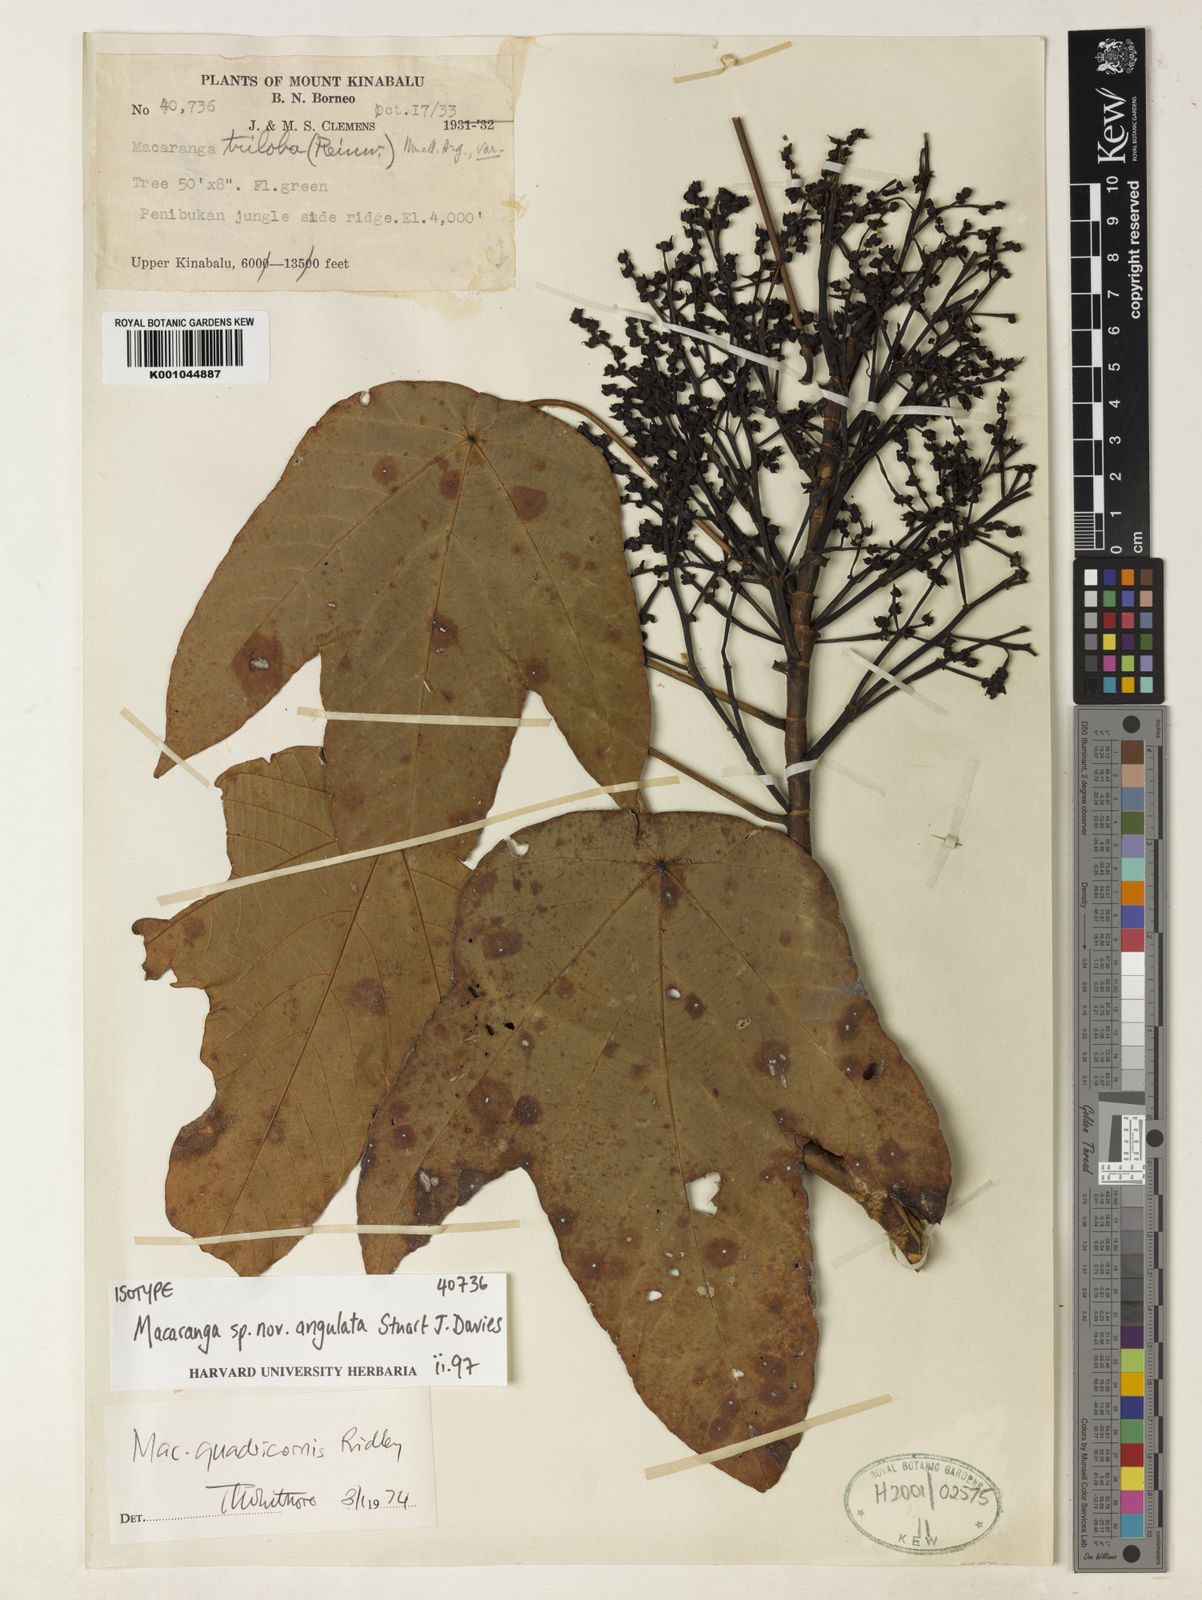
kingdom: Plantae
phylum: Tracheophyta
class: Magnoliopsida
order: Malpighiales
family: Euphorbiaceae
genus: Macaranga
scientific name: Macaranga angulata
